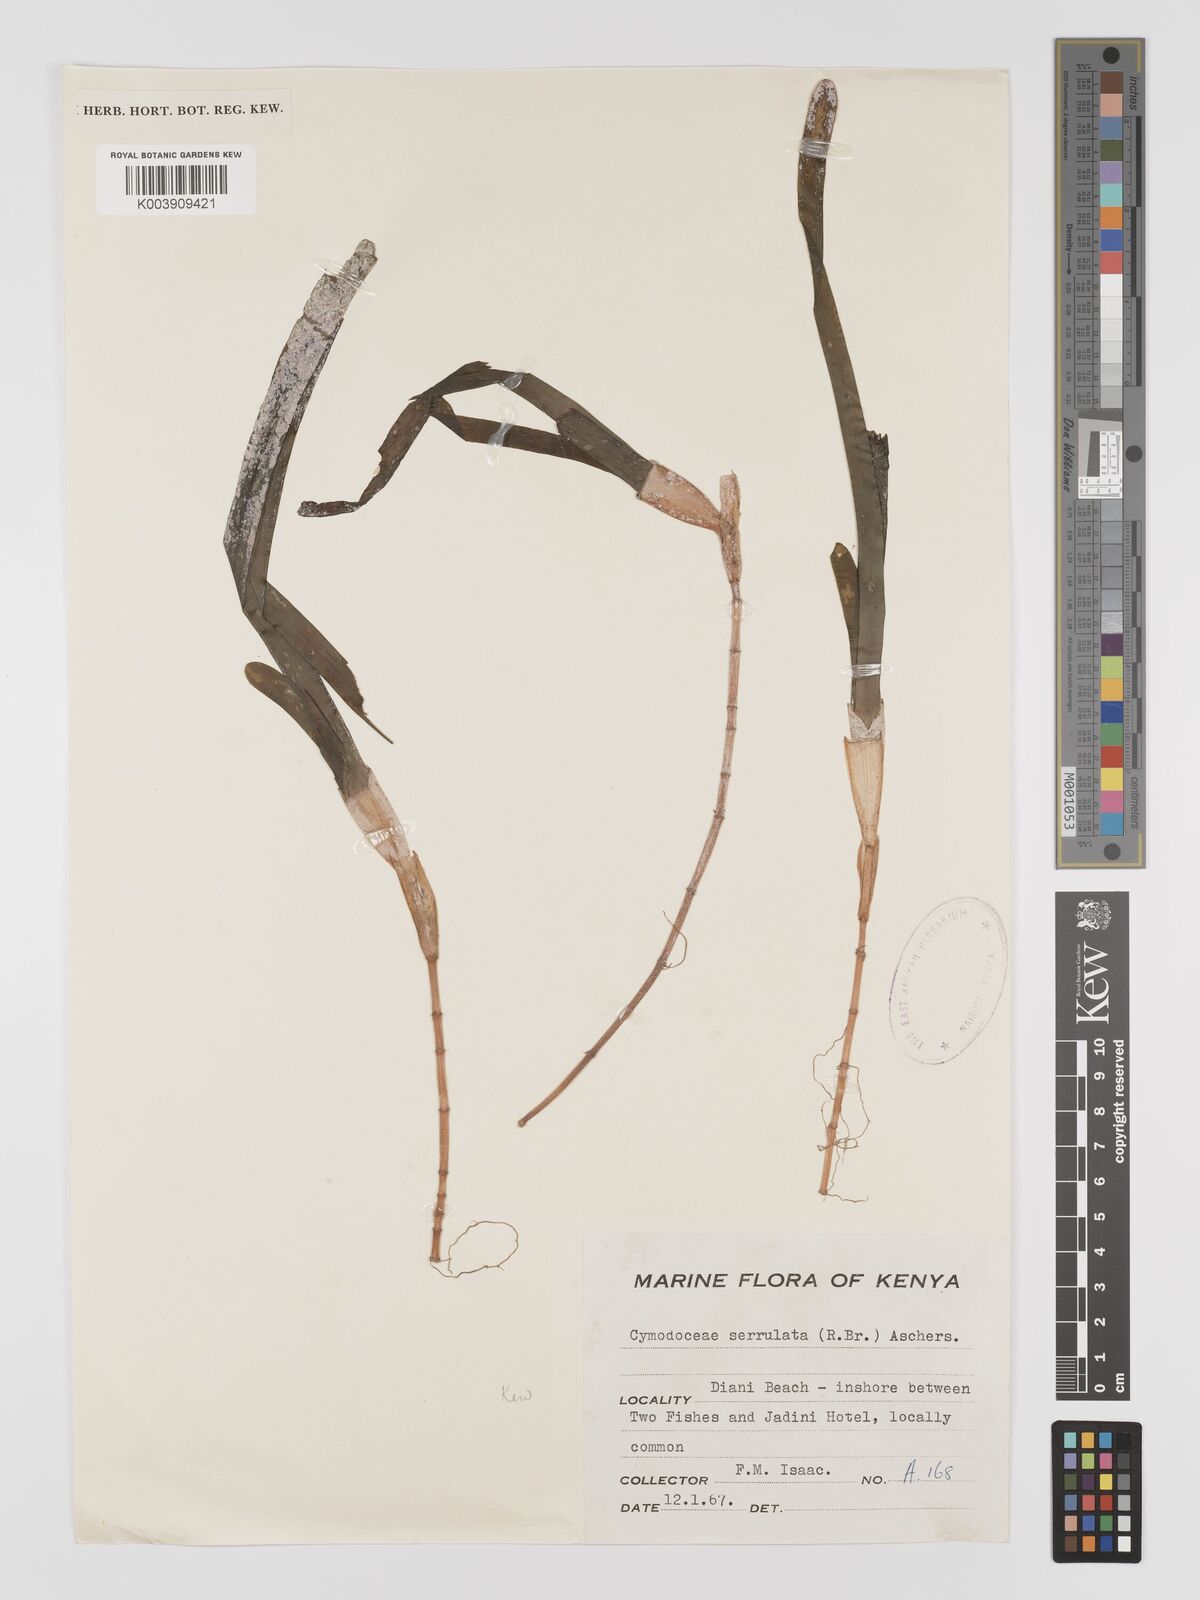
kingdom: Plantae
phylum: Tracheophyta
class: Liliopsida
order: Alismatales
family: Cymodoceaceae
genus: Oceana
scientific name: Oceana serrulata
